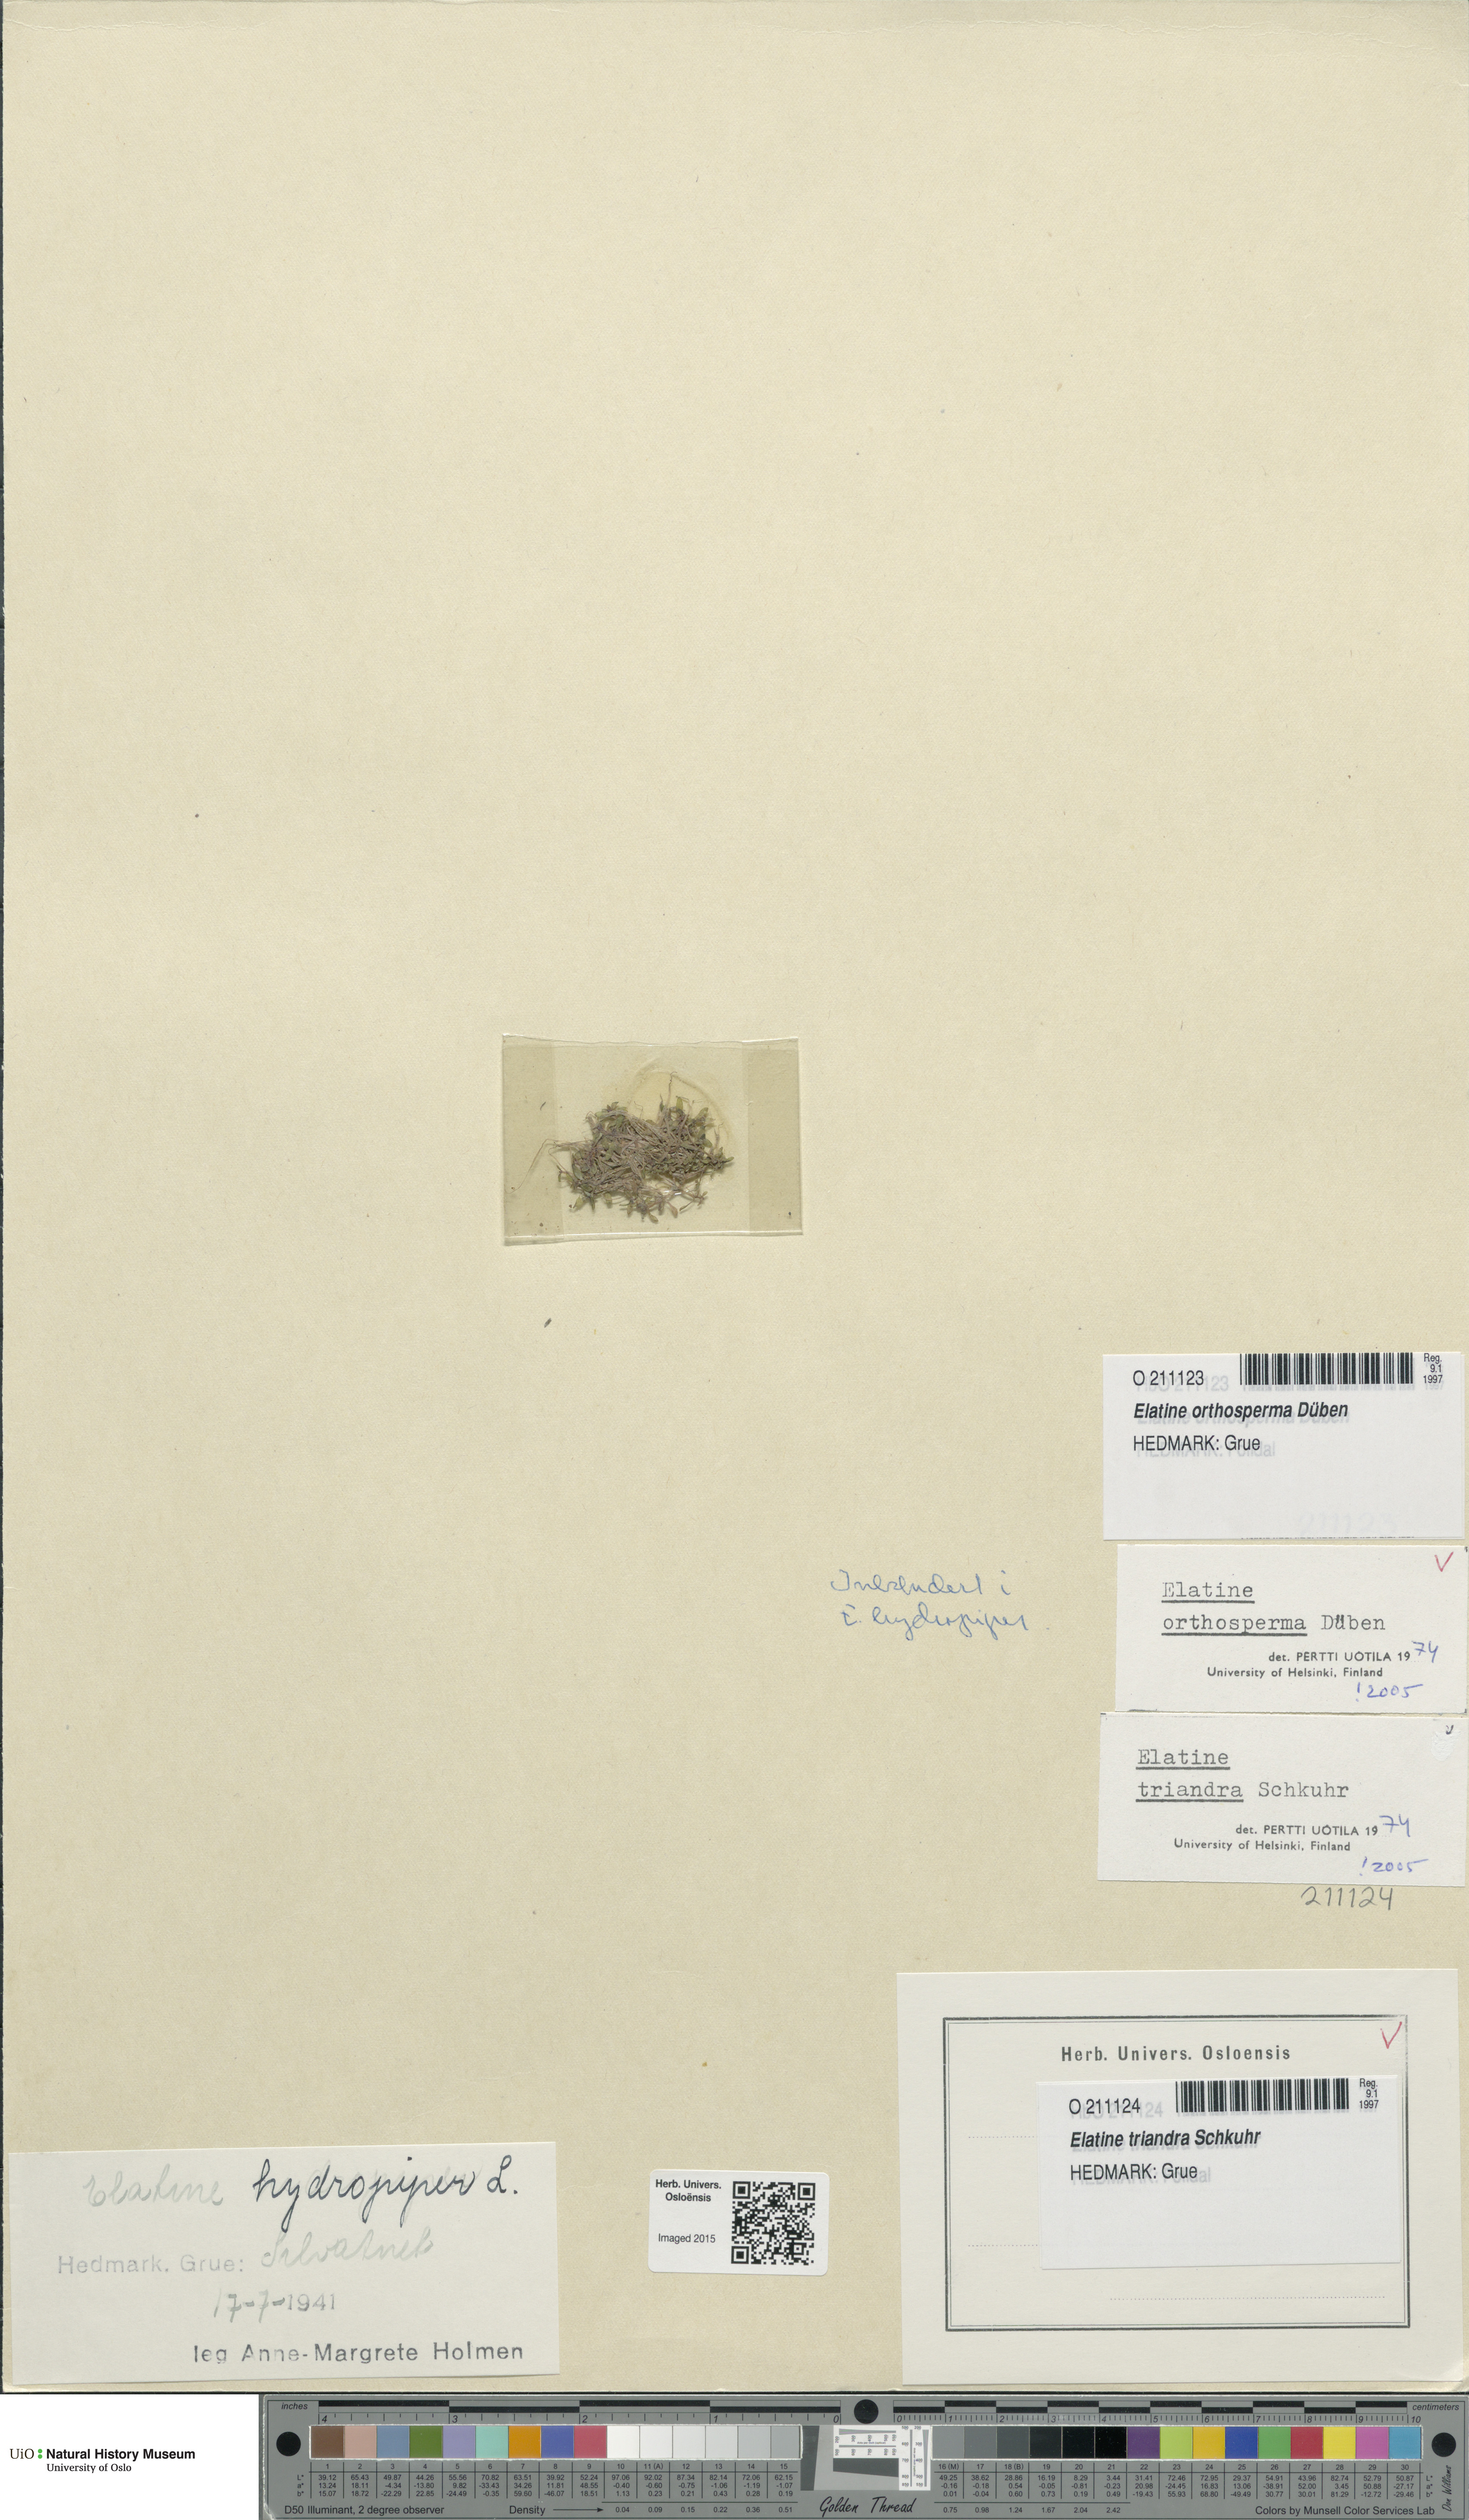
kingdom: Plantae
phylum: Tracheophyta
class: Magnoliopsida
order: Malpighiales
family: Elatinaceae
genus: Elatine
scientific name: Elatine orthosperma
